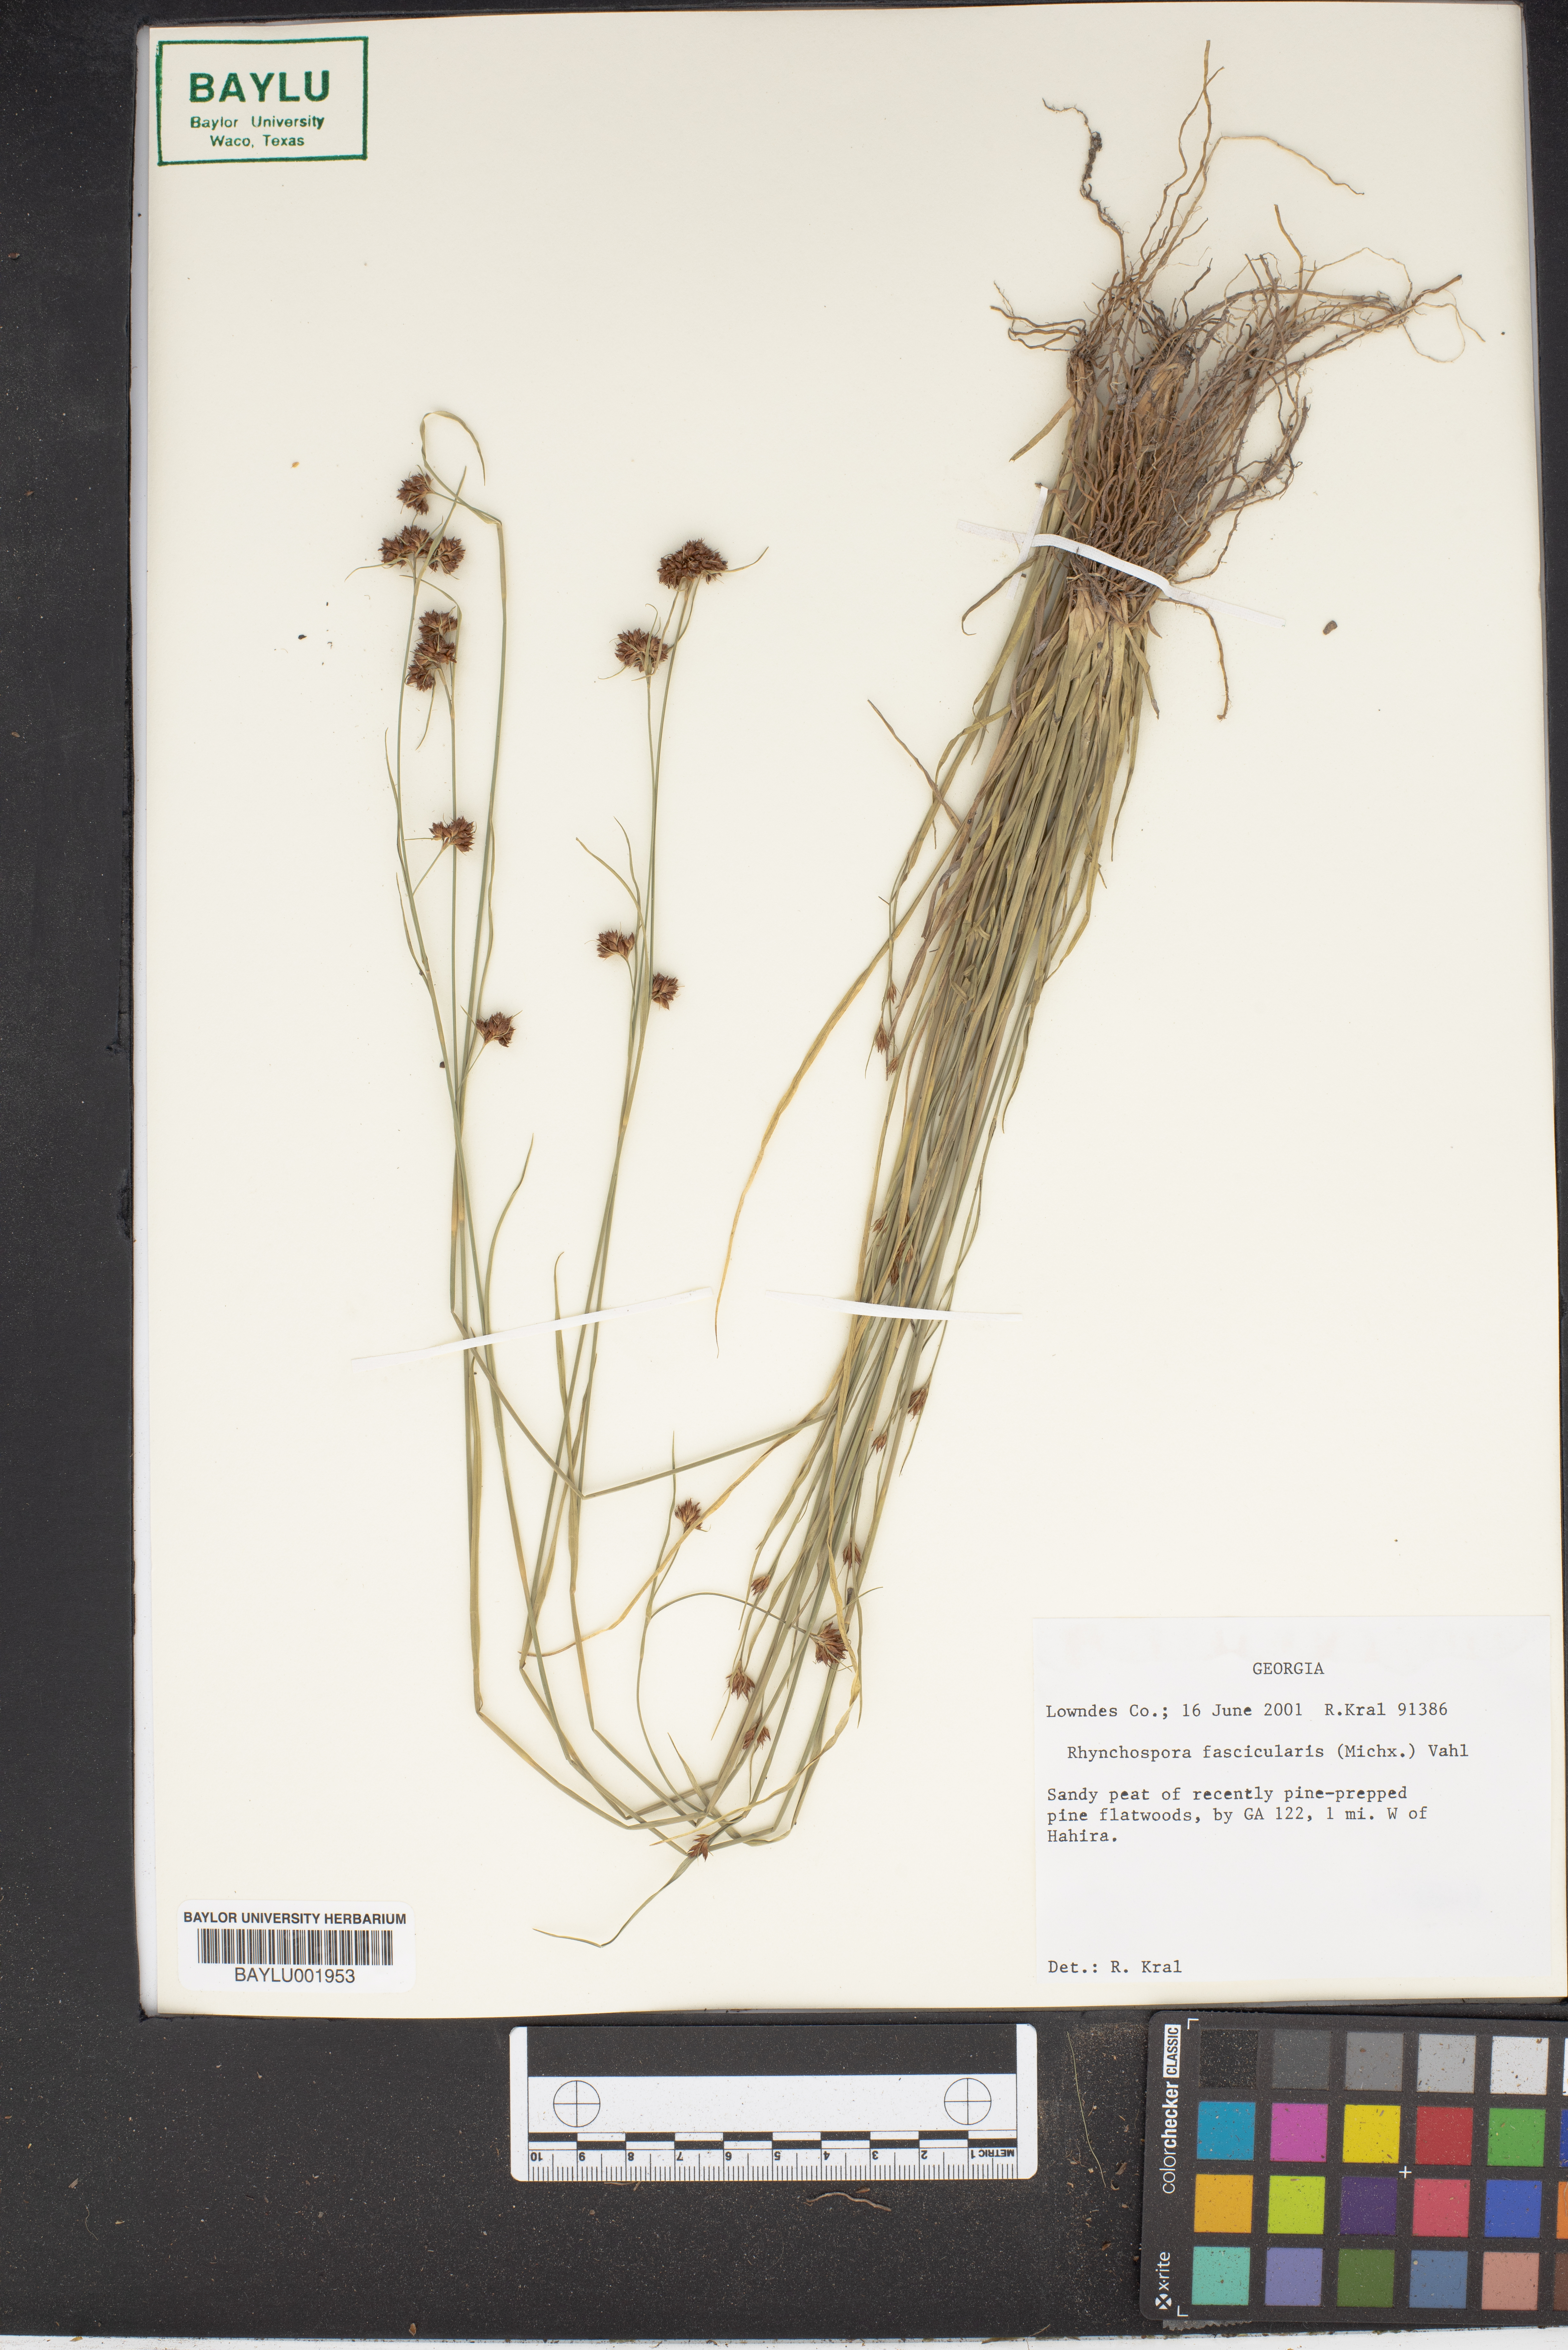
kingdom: Plantae
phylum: Tracheophyta
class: Liliopsida
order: Poales
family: Cyperaceae
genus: Rhynchospora
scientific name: Rhynchospora fascicularis
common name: Fascicled beak sedge
